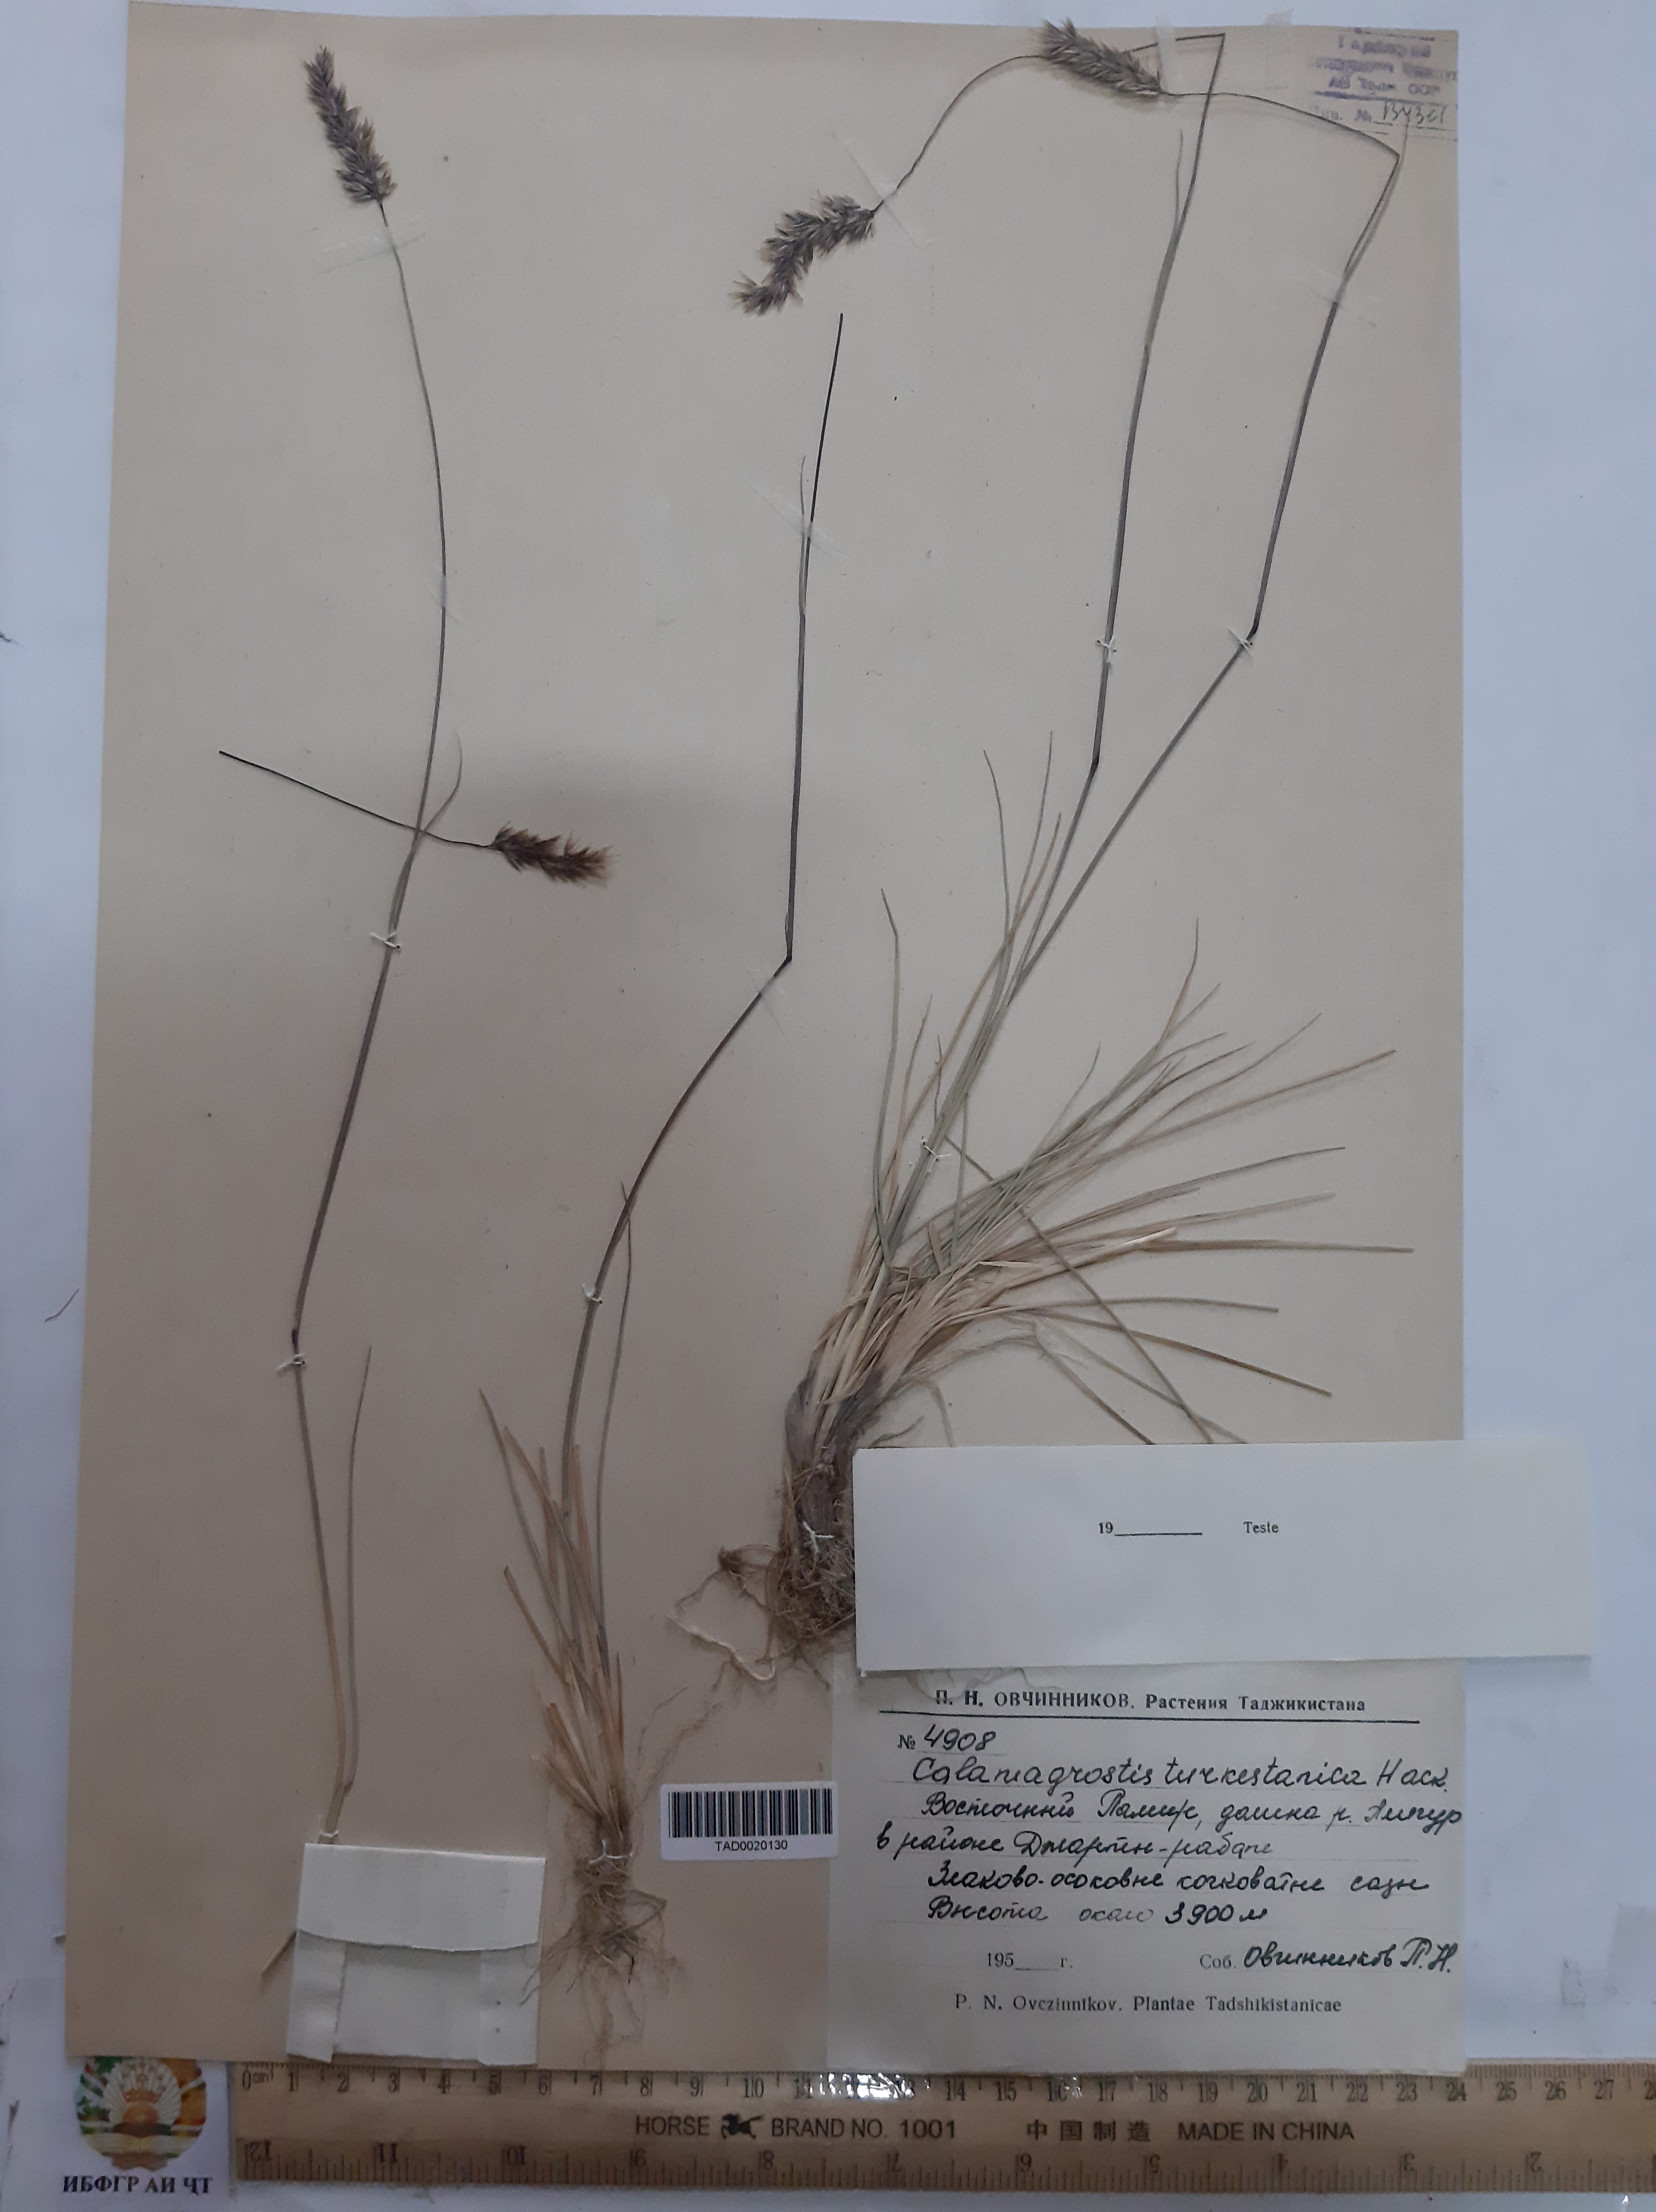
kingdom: Plantae
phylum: Tracheophyta
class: Liliopsida
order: Poales
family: Poaceae
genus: Calamagrostis
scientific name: Calamagrostis turkestanica
